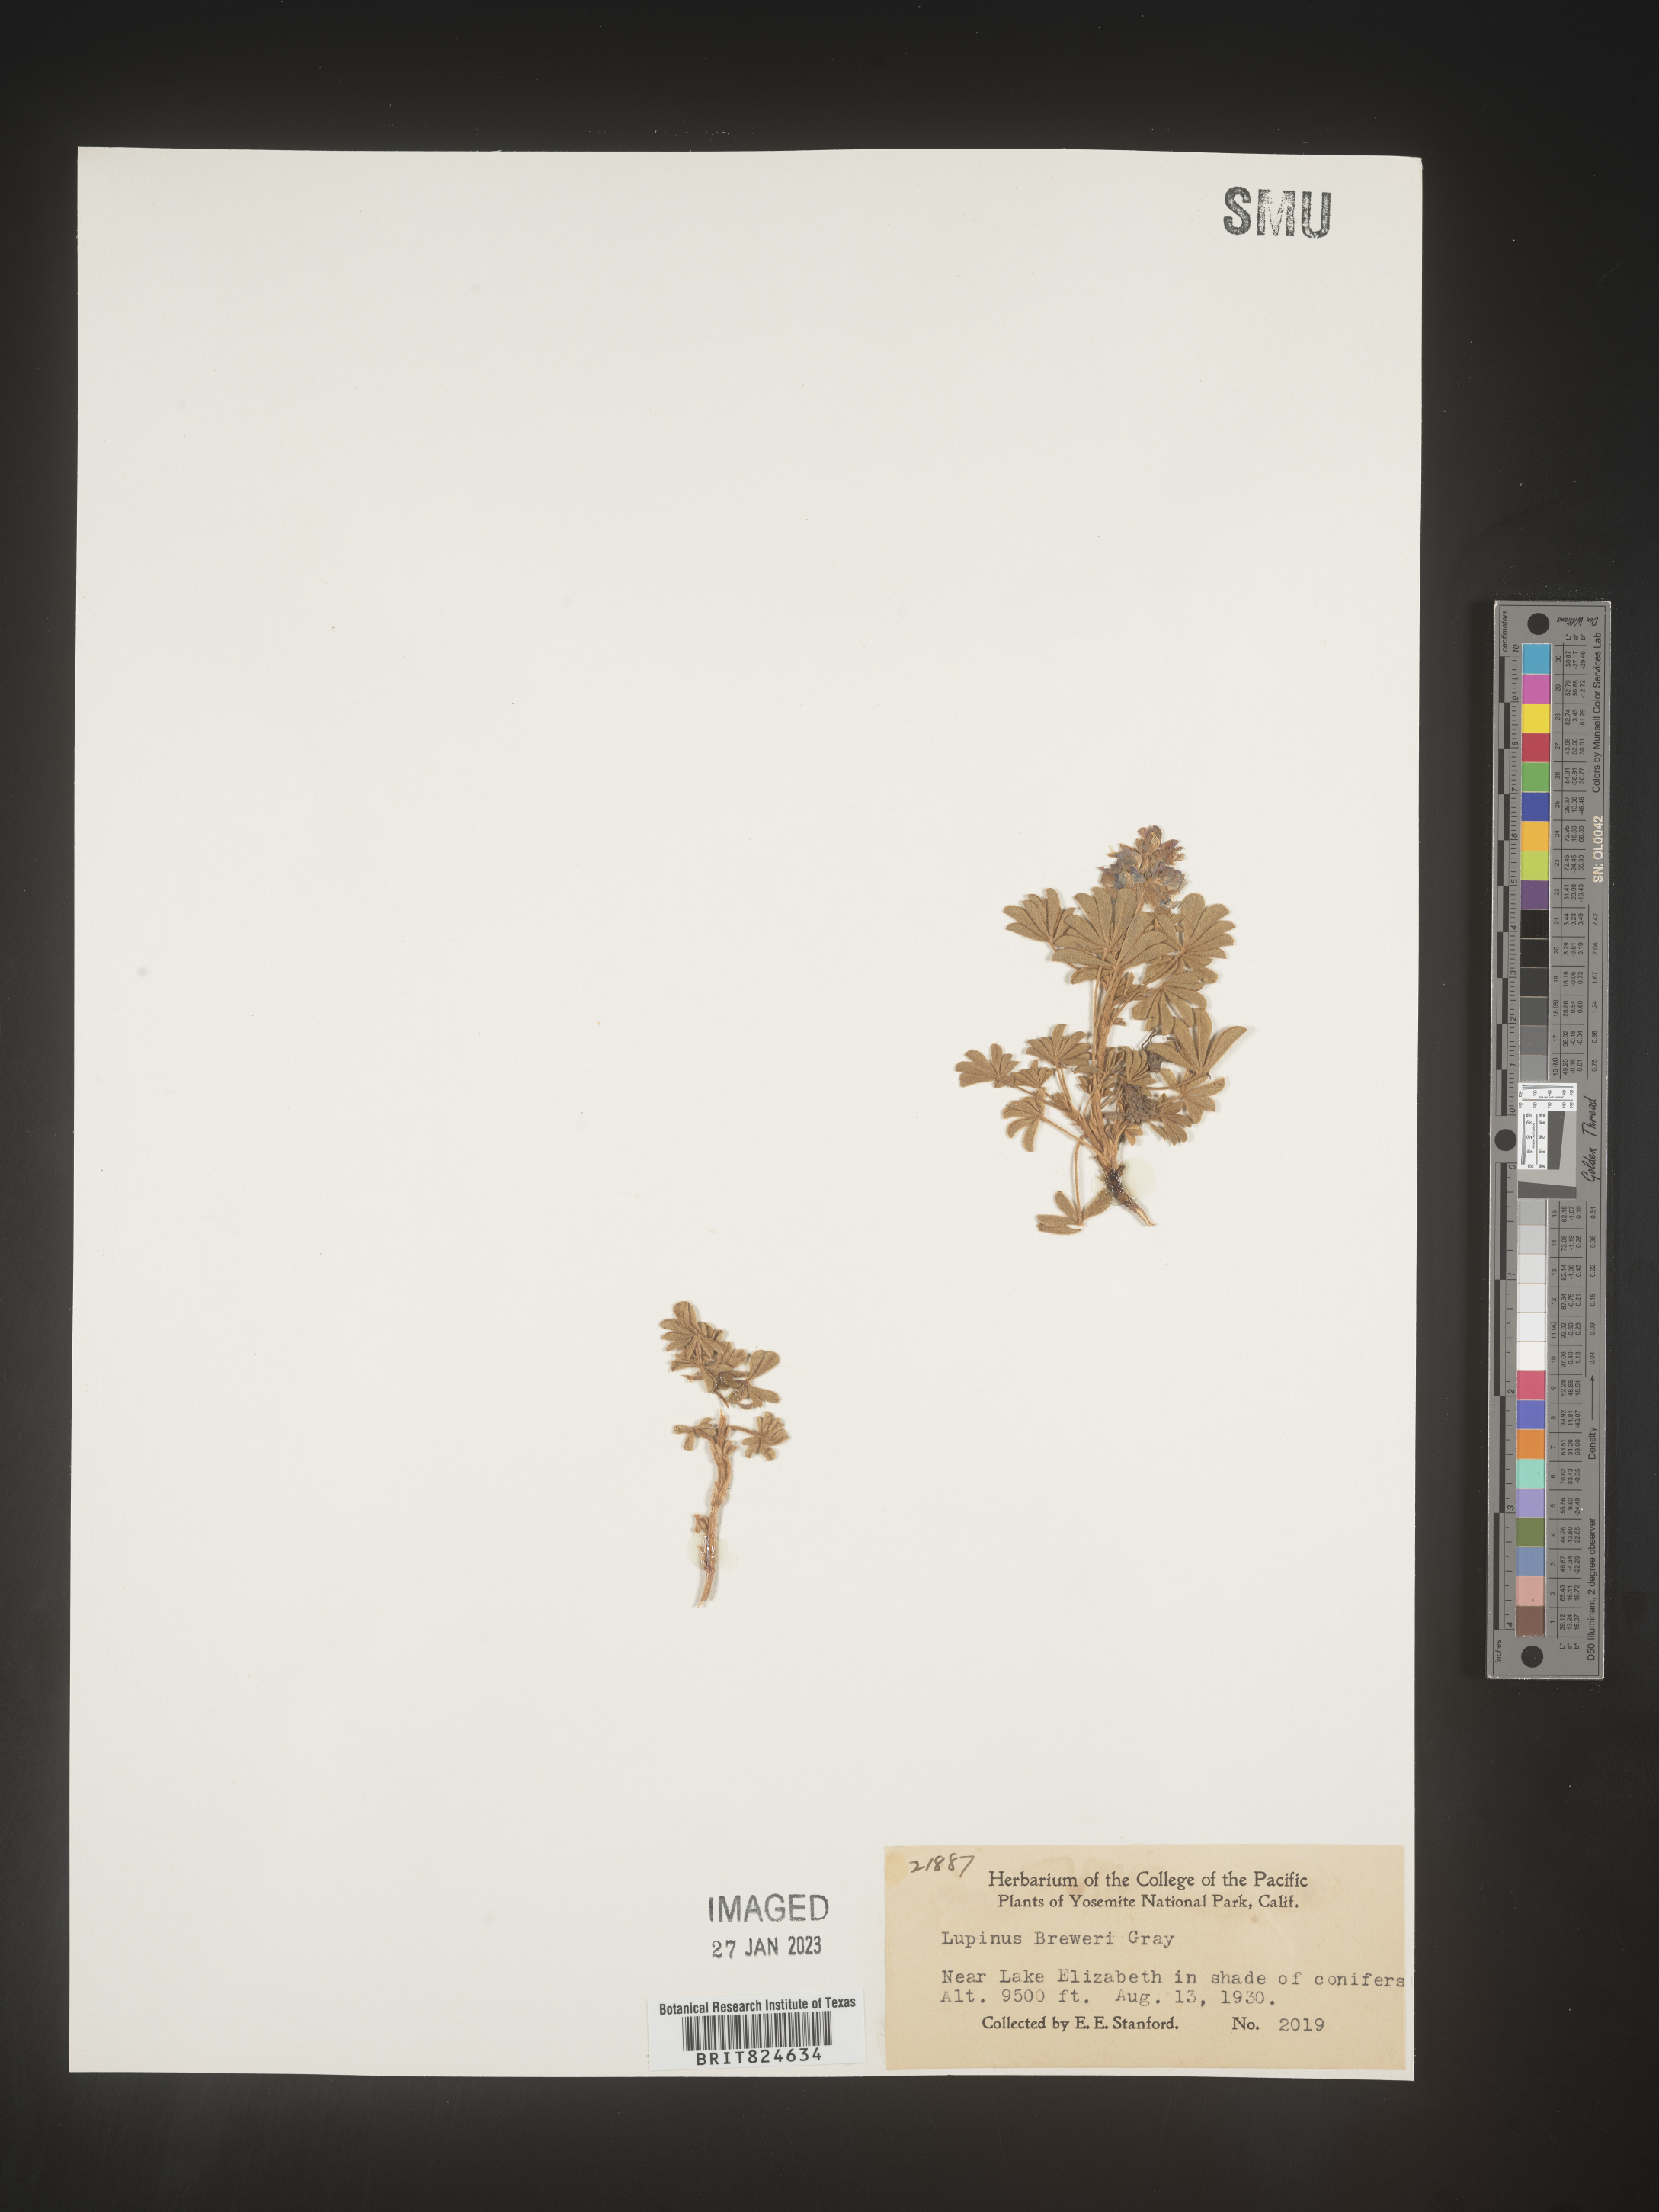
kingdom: Plantae
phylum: Tracheophyta
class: Magnoliopsida
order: Fabales
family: Fabaceae
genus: Lupinus
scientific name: Lupinus
